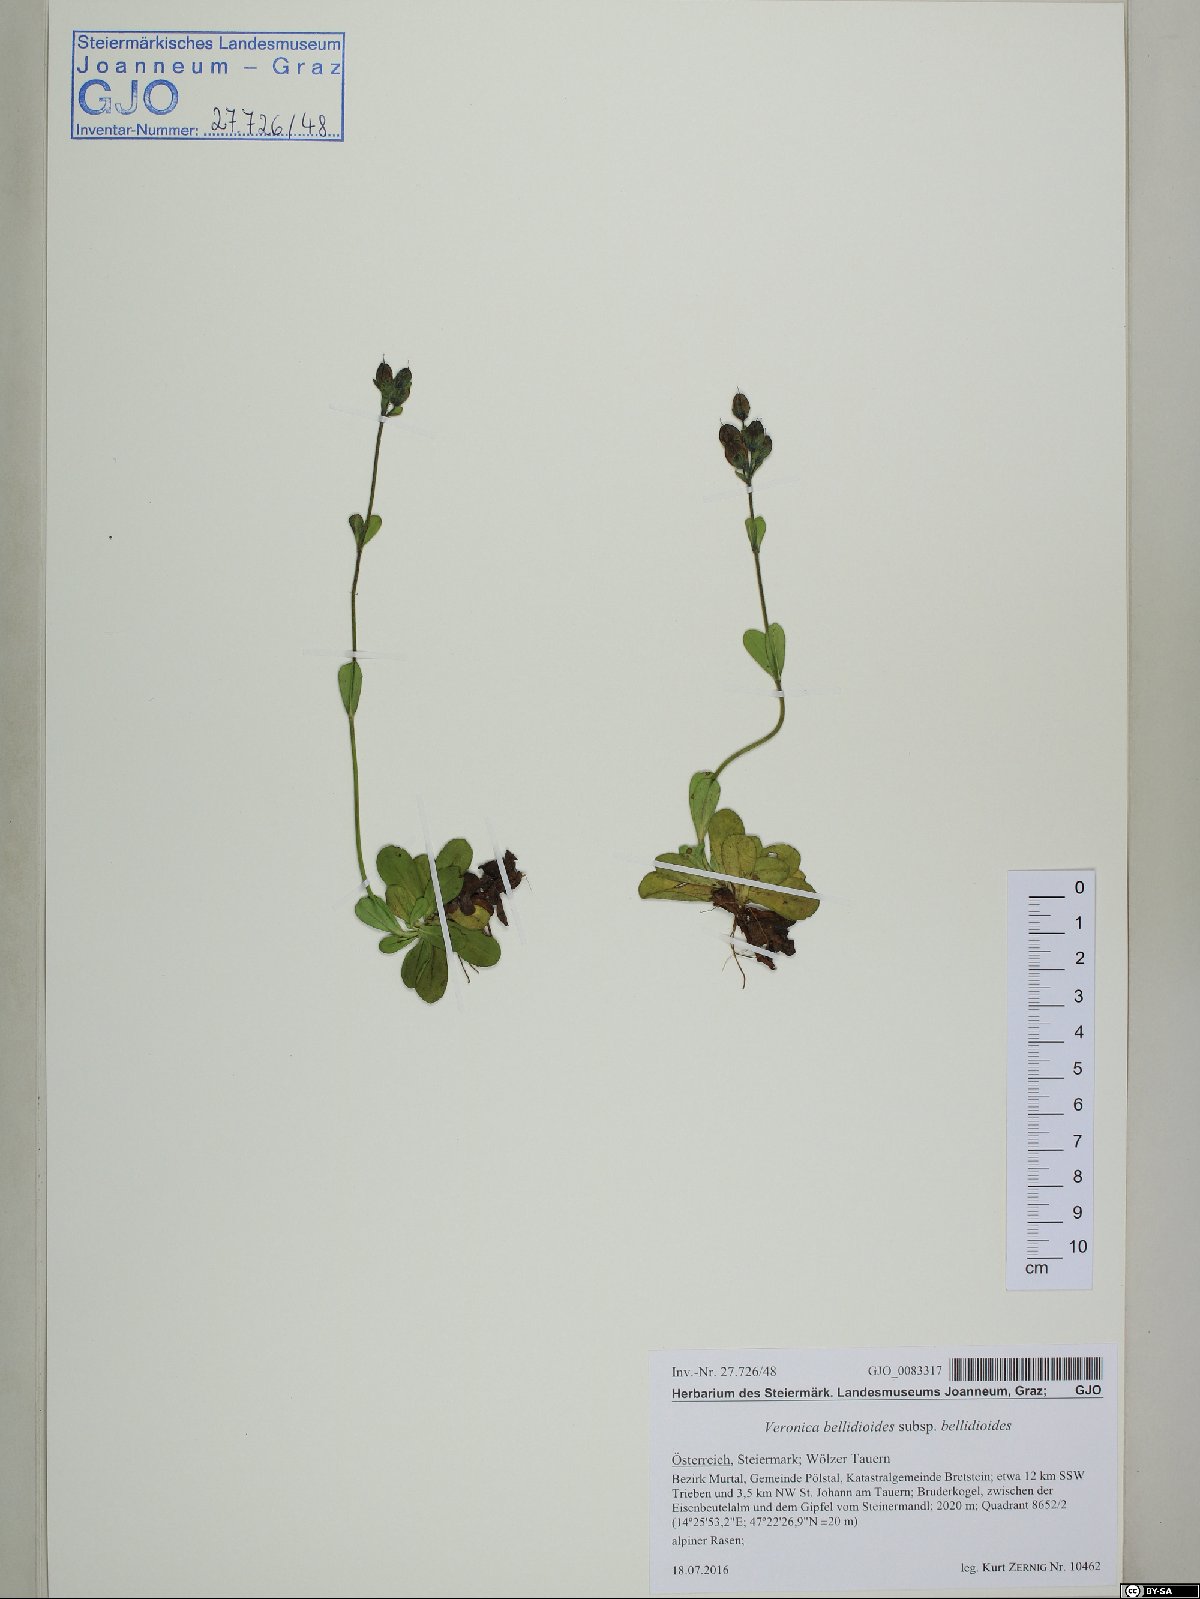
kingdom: Plantae
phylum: Tracheophyta
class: Magnoliopsida
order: Lamiales
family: Plantaginaceae
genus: Veronica
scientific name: Veronica bellidioides
